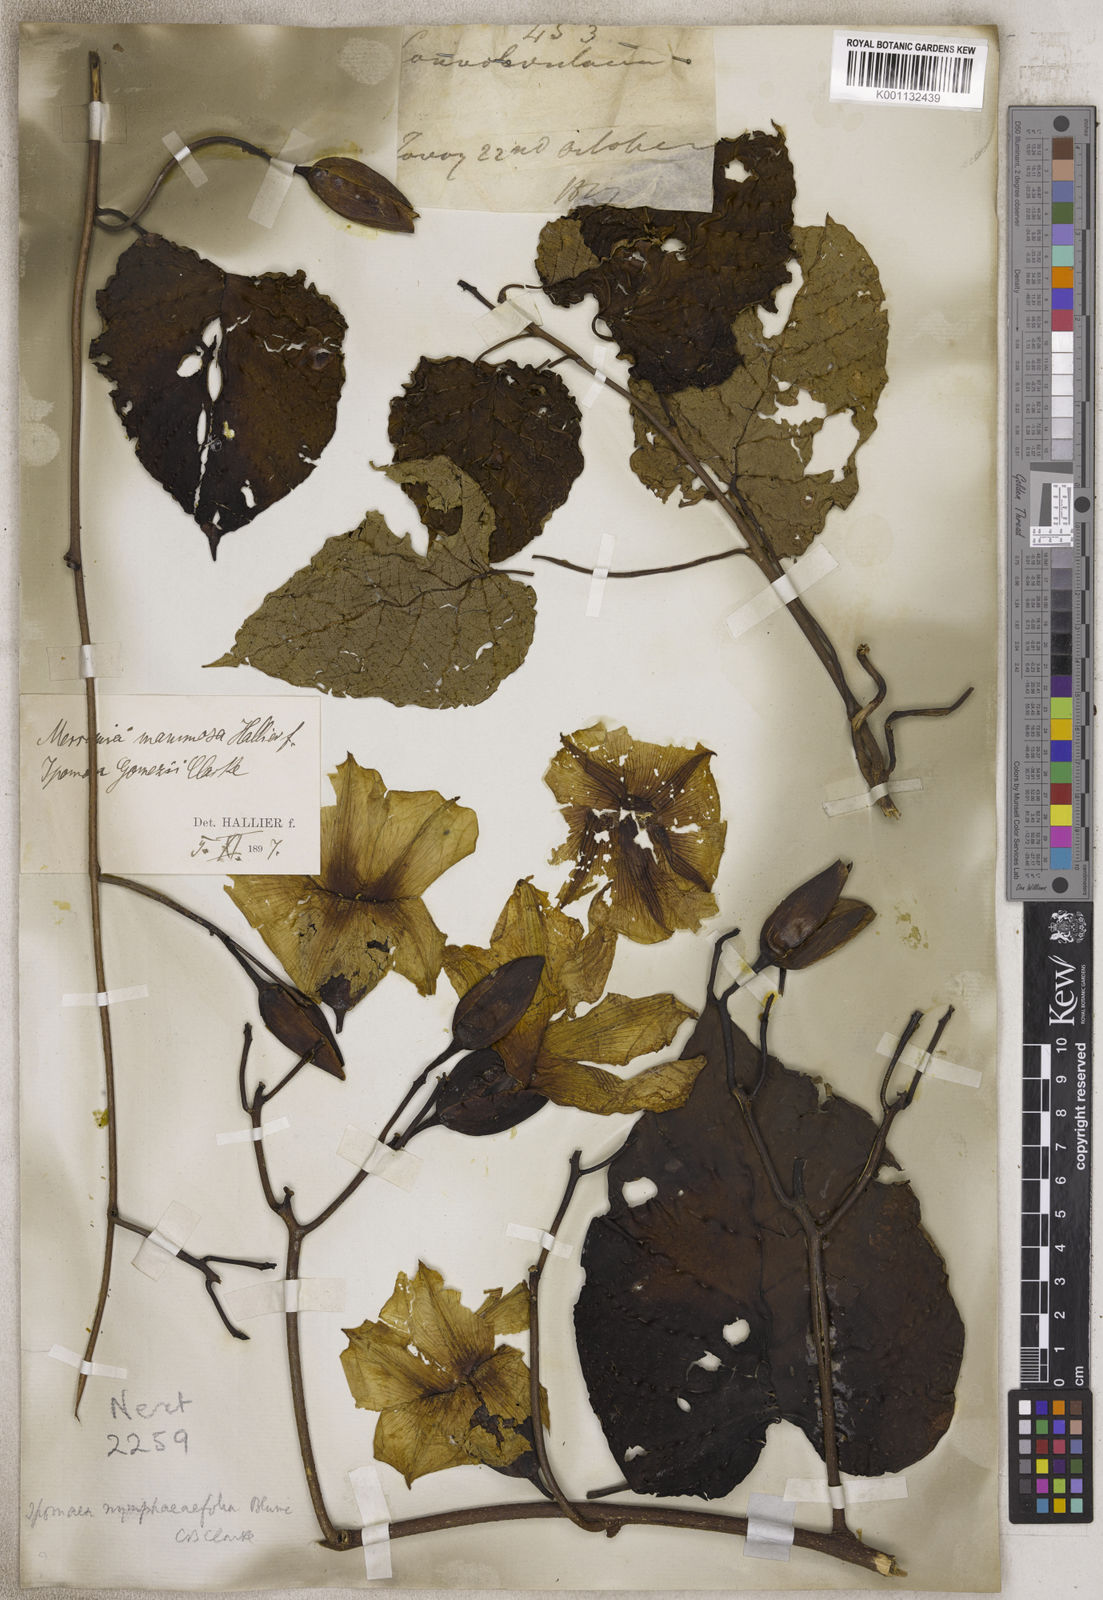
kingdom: Plantae
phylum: Tracheophyta
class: Magnoliopsida
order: Solanales
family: Convolvulaceae
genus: Merremia
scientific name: Merremia
